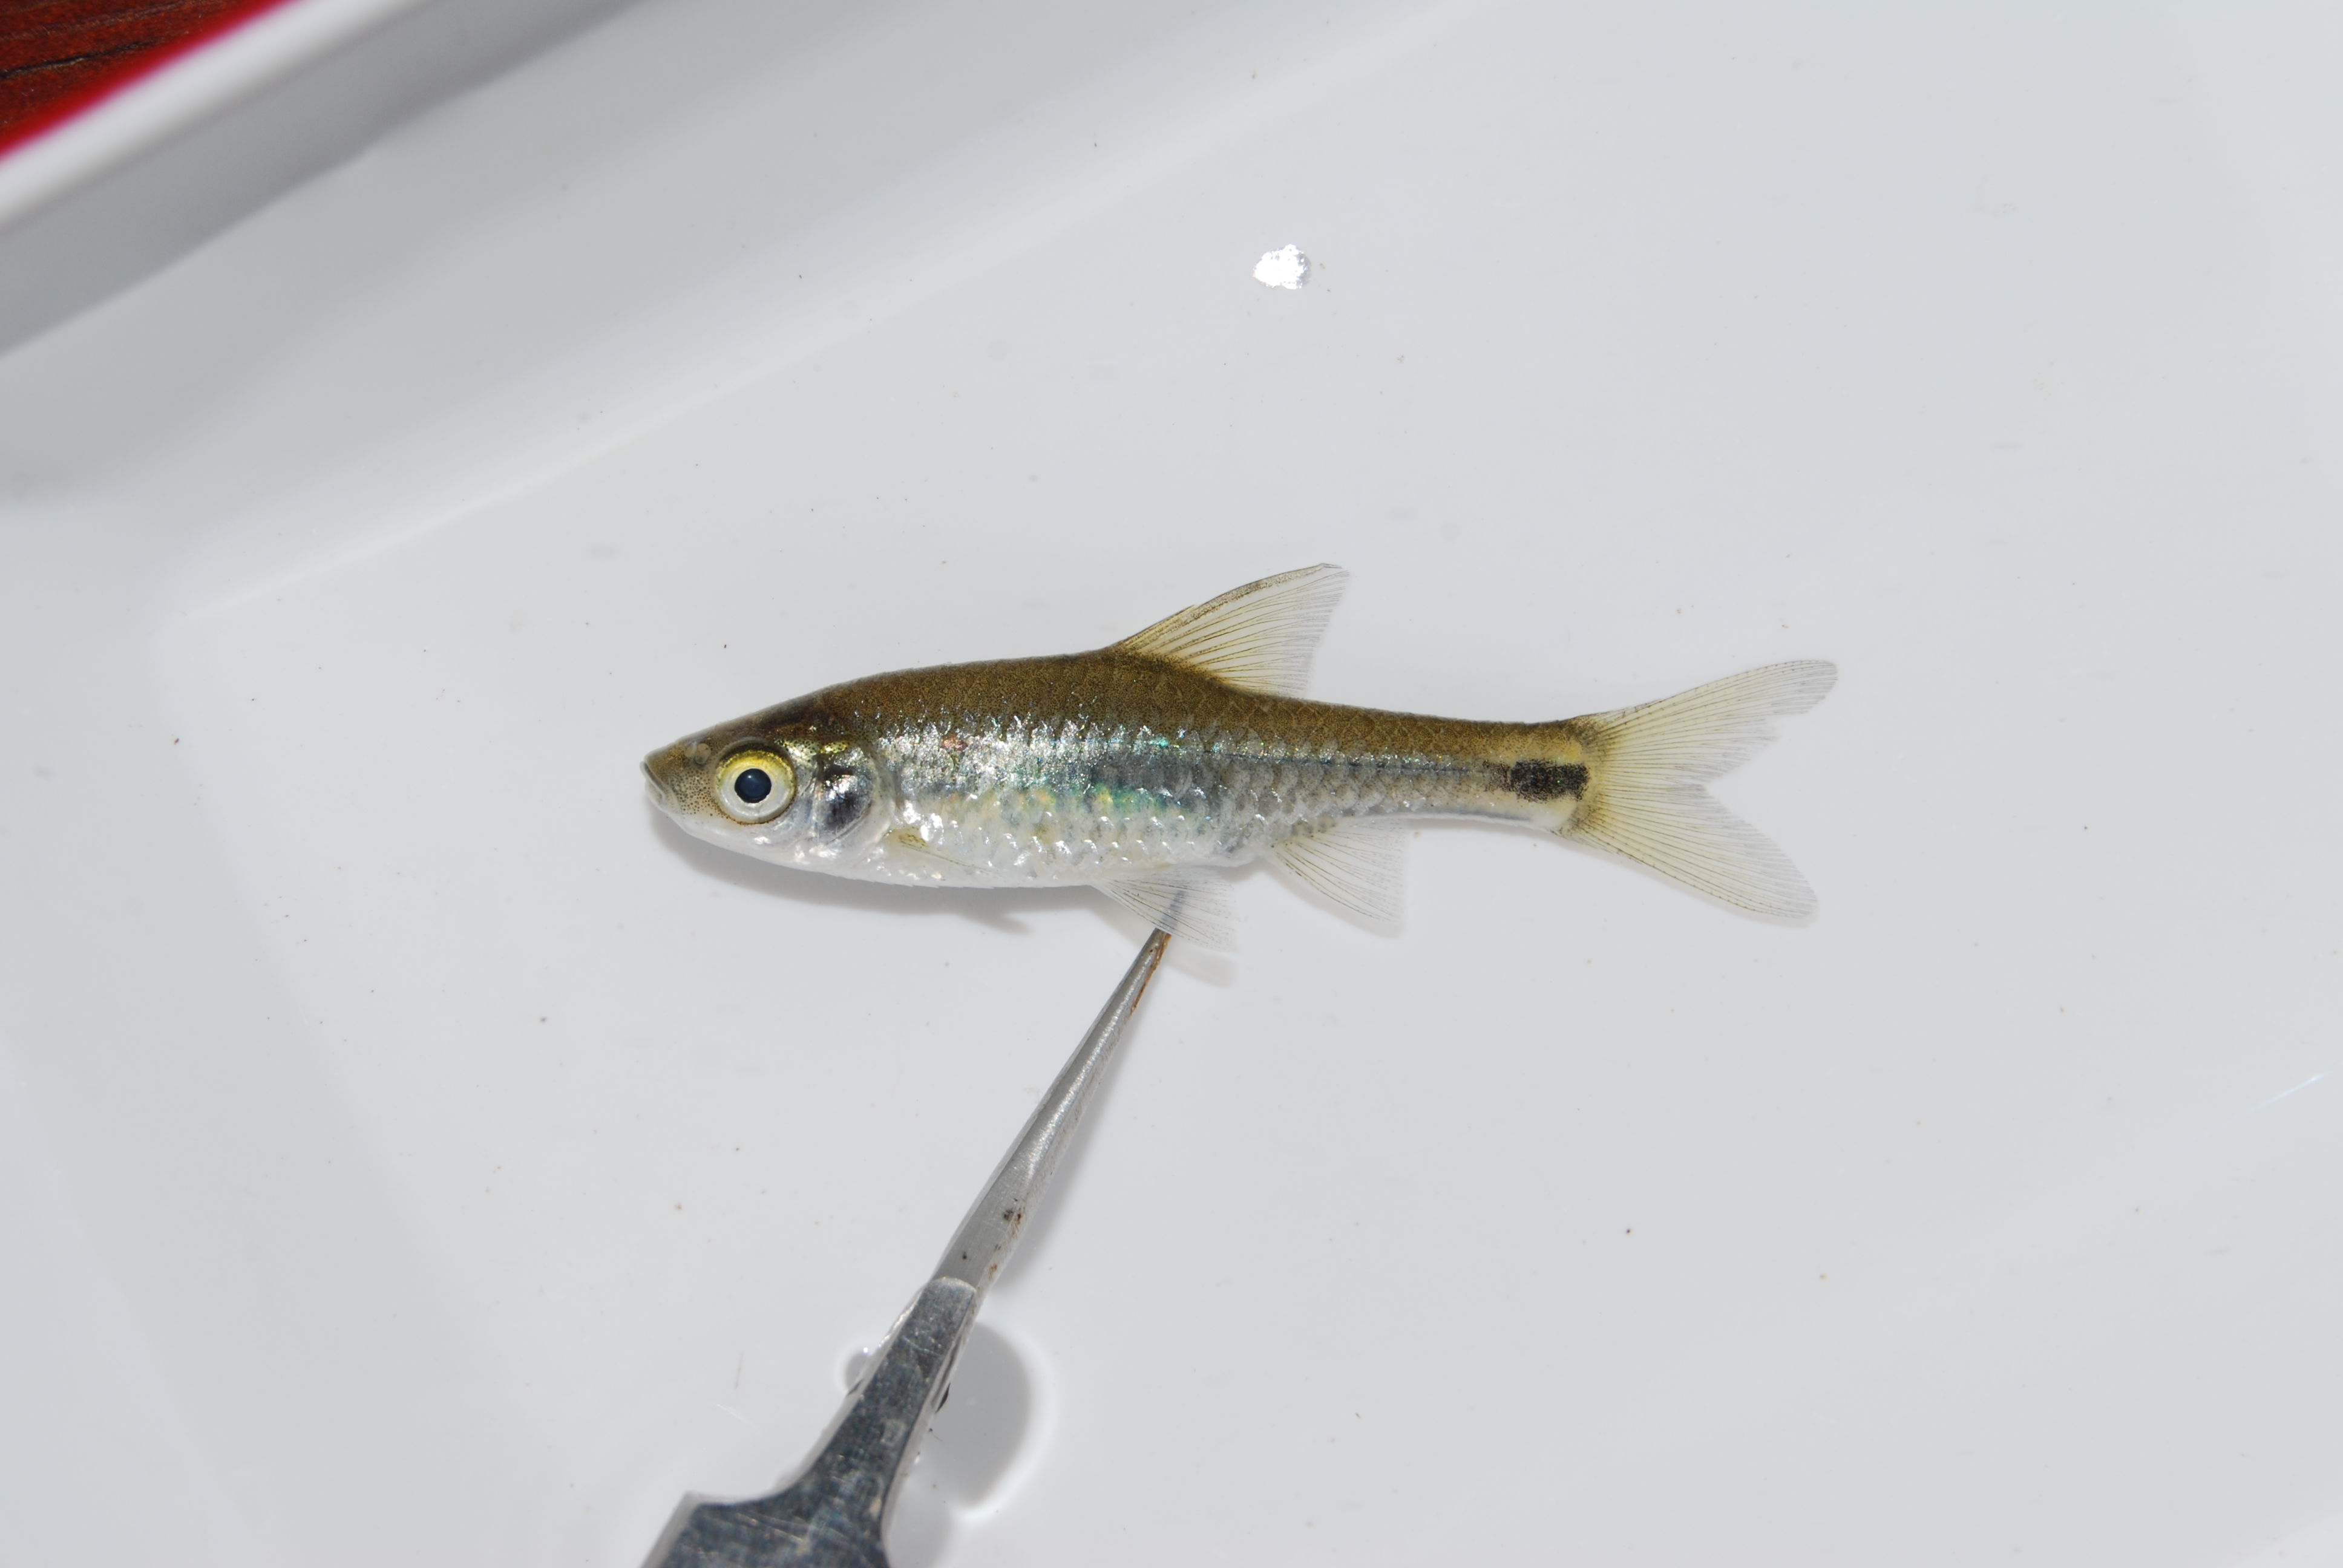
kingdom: Animalia
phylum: Chordata
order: Cypriniformes
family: Cyprinidae
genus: Enteromius
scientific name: Enteromius afrovernayi
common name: Spottail barb
